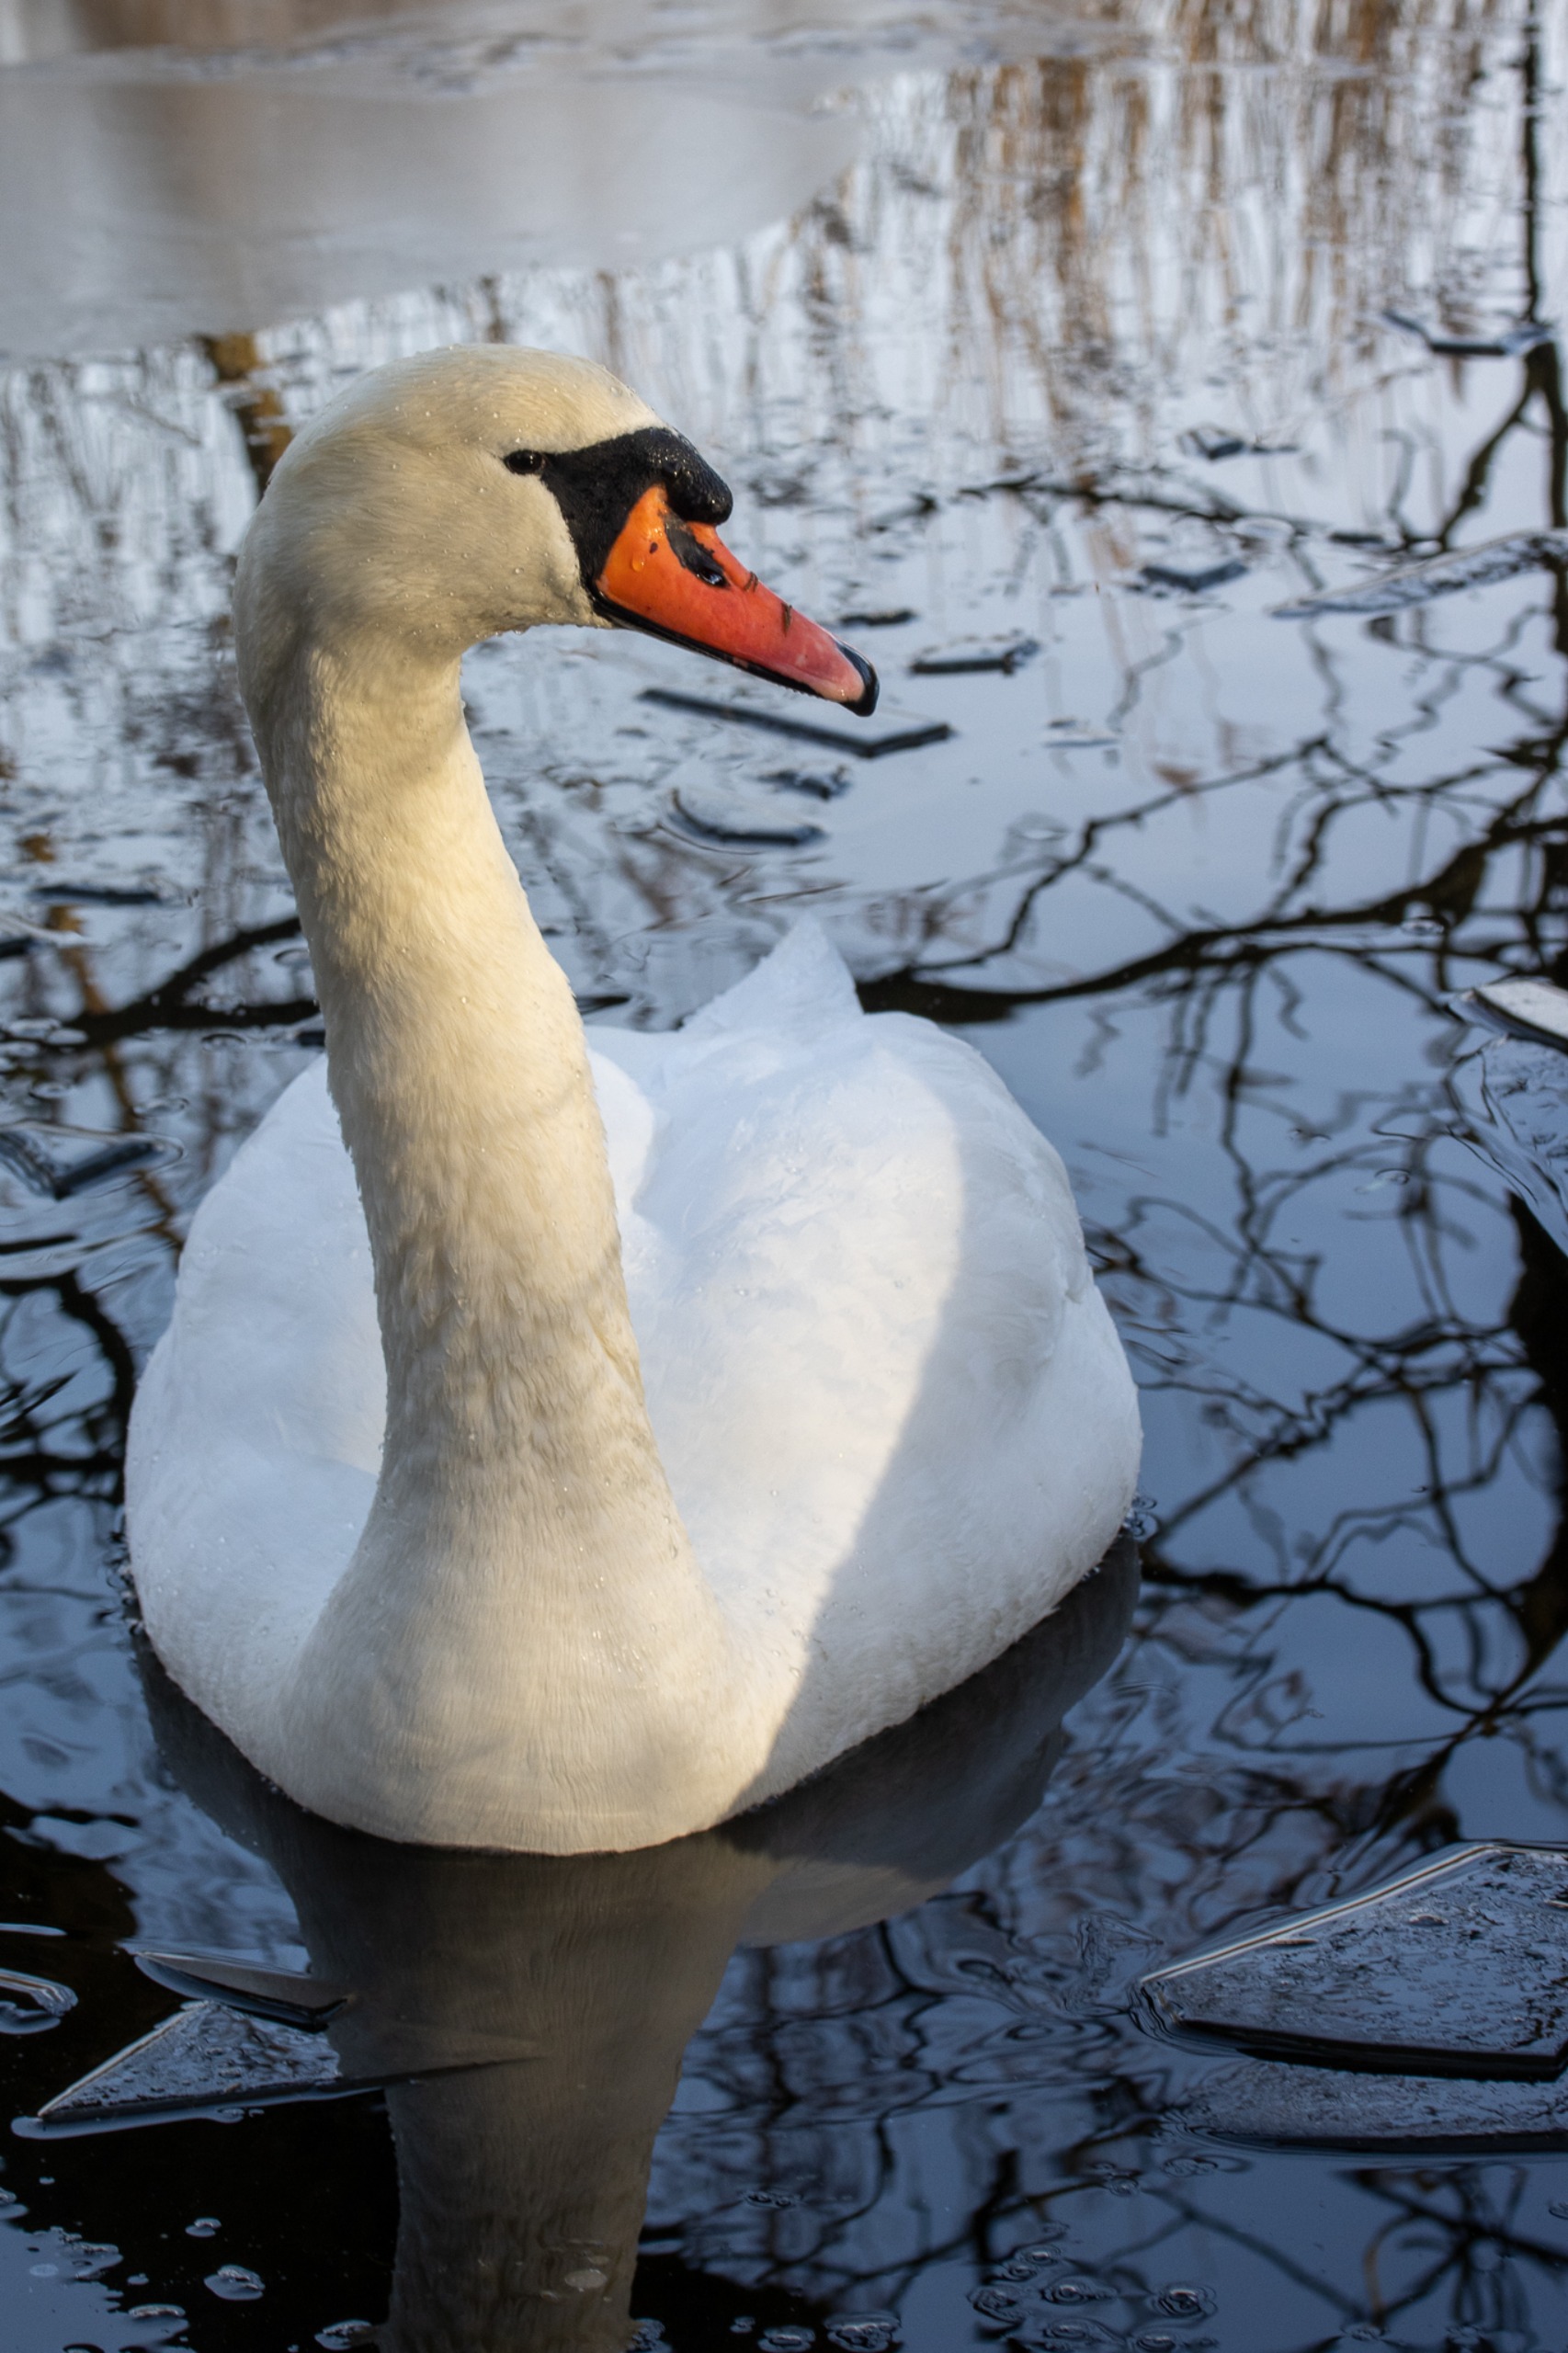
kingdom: Animalia
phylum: Chordata
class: Aves
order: Anseriformes
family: Anatidae
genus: Cygnus
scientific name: Cygnus olor
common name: Knopsvane
